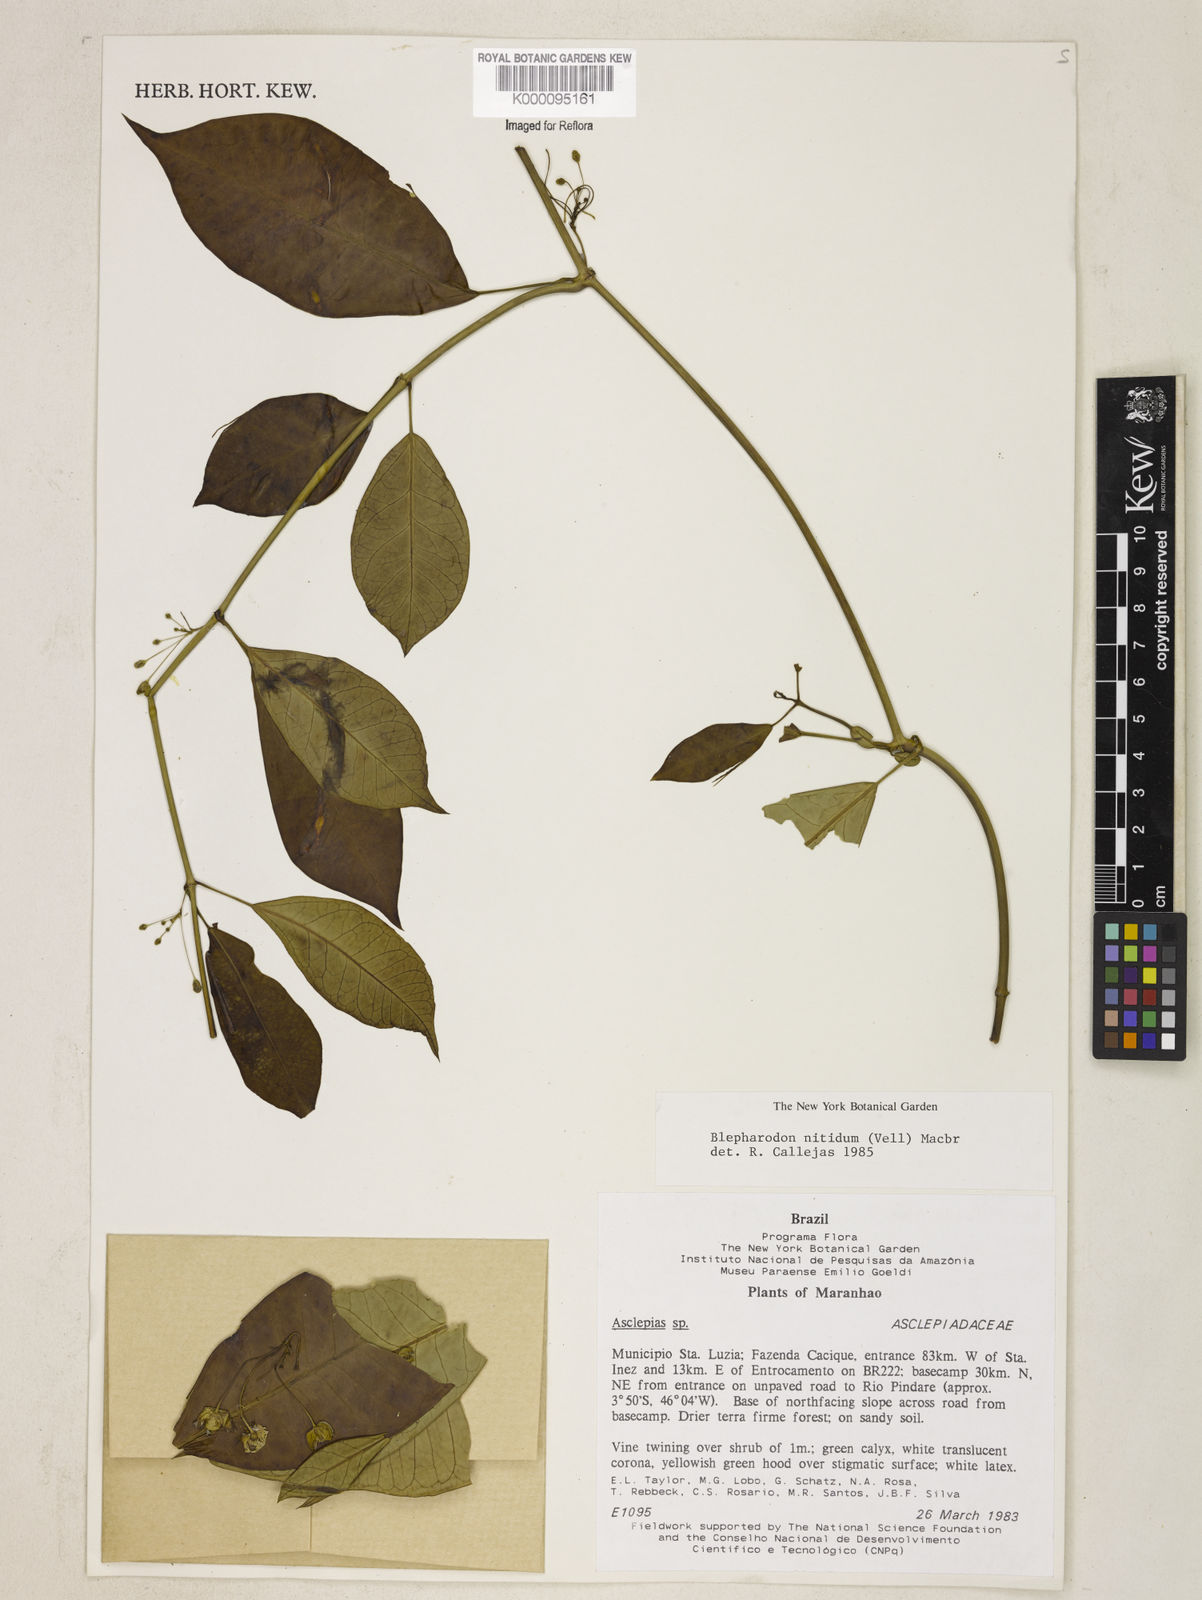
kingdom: Plantae
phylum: Tracheophyta
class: Magnoliopsida
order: Gentianales
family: Apocynaceae
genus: Blepharodon
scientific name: Blepharodon pictum
